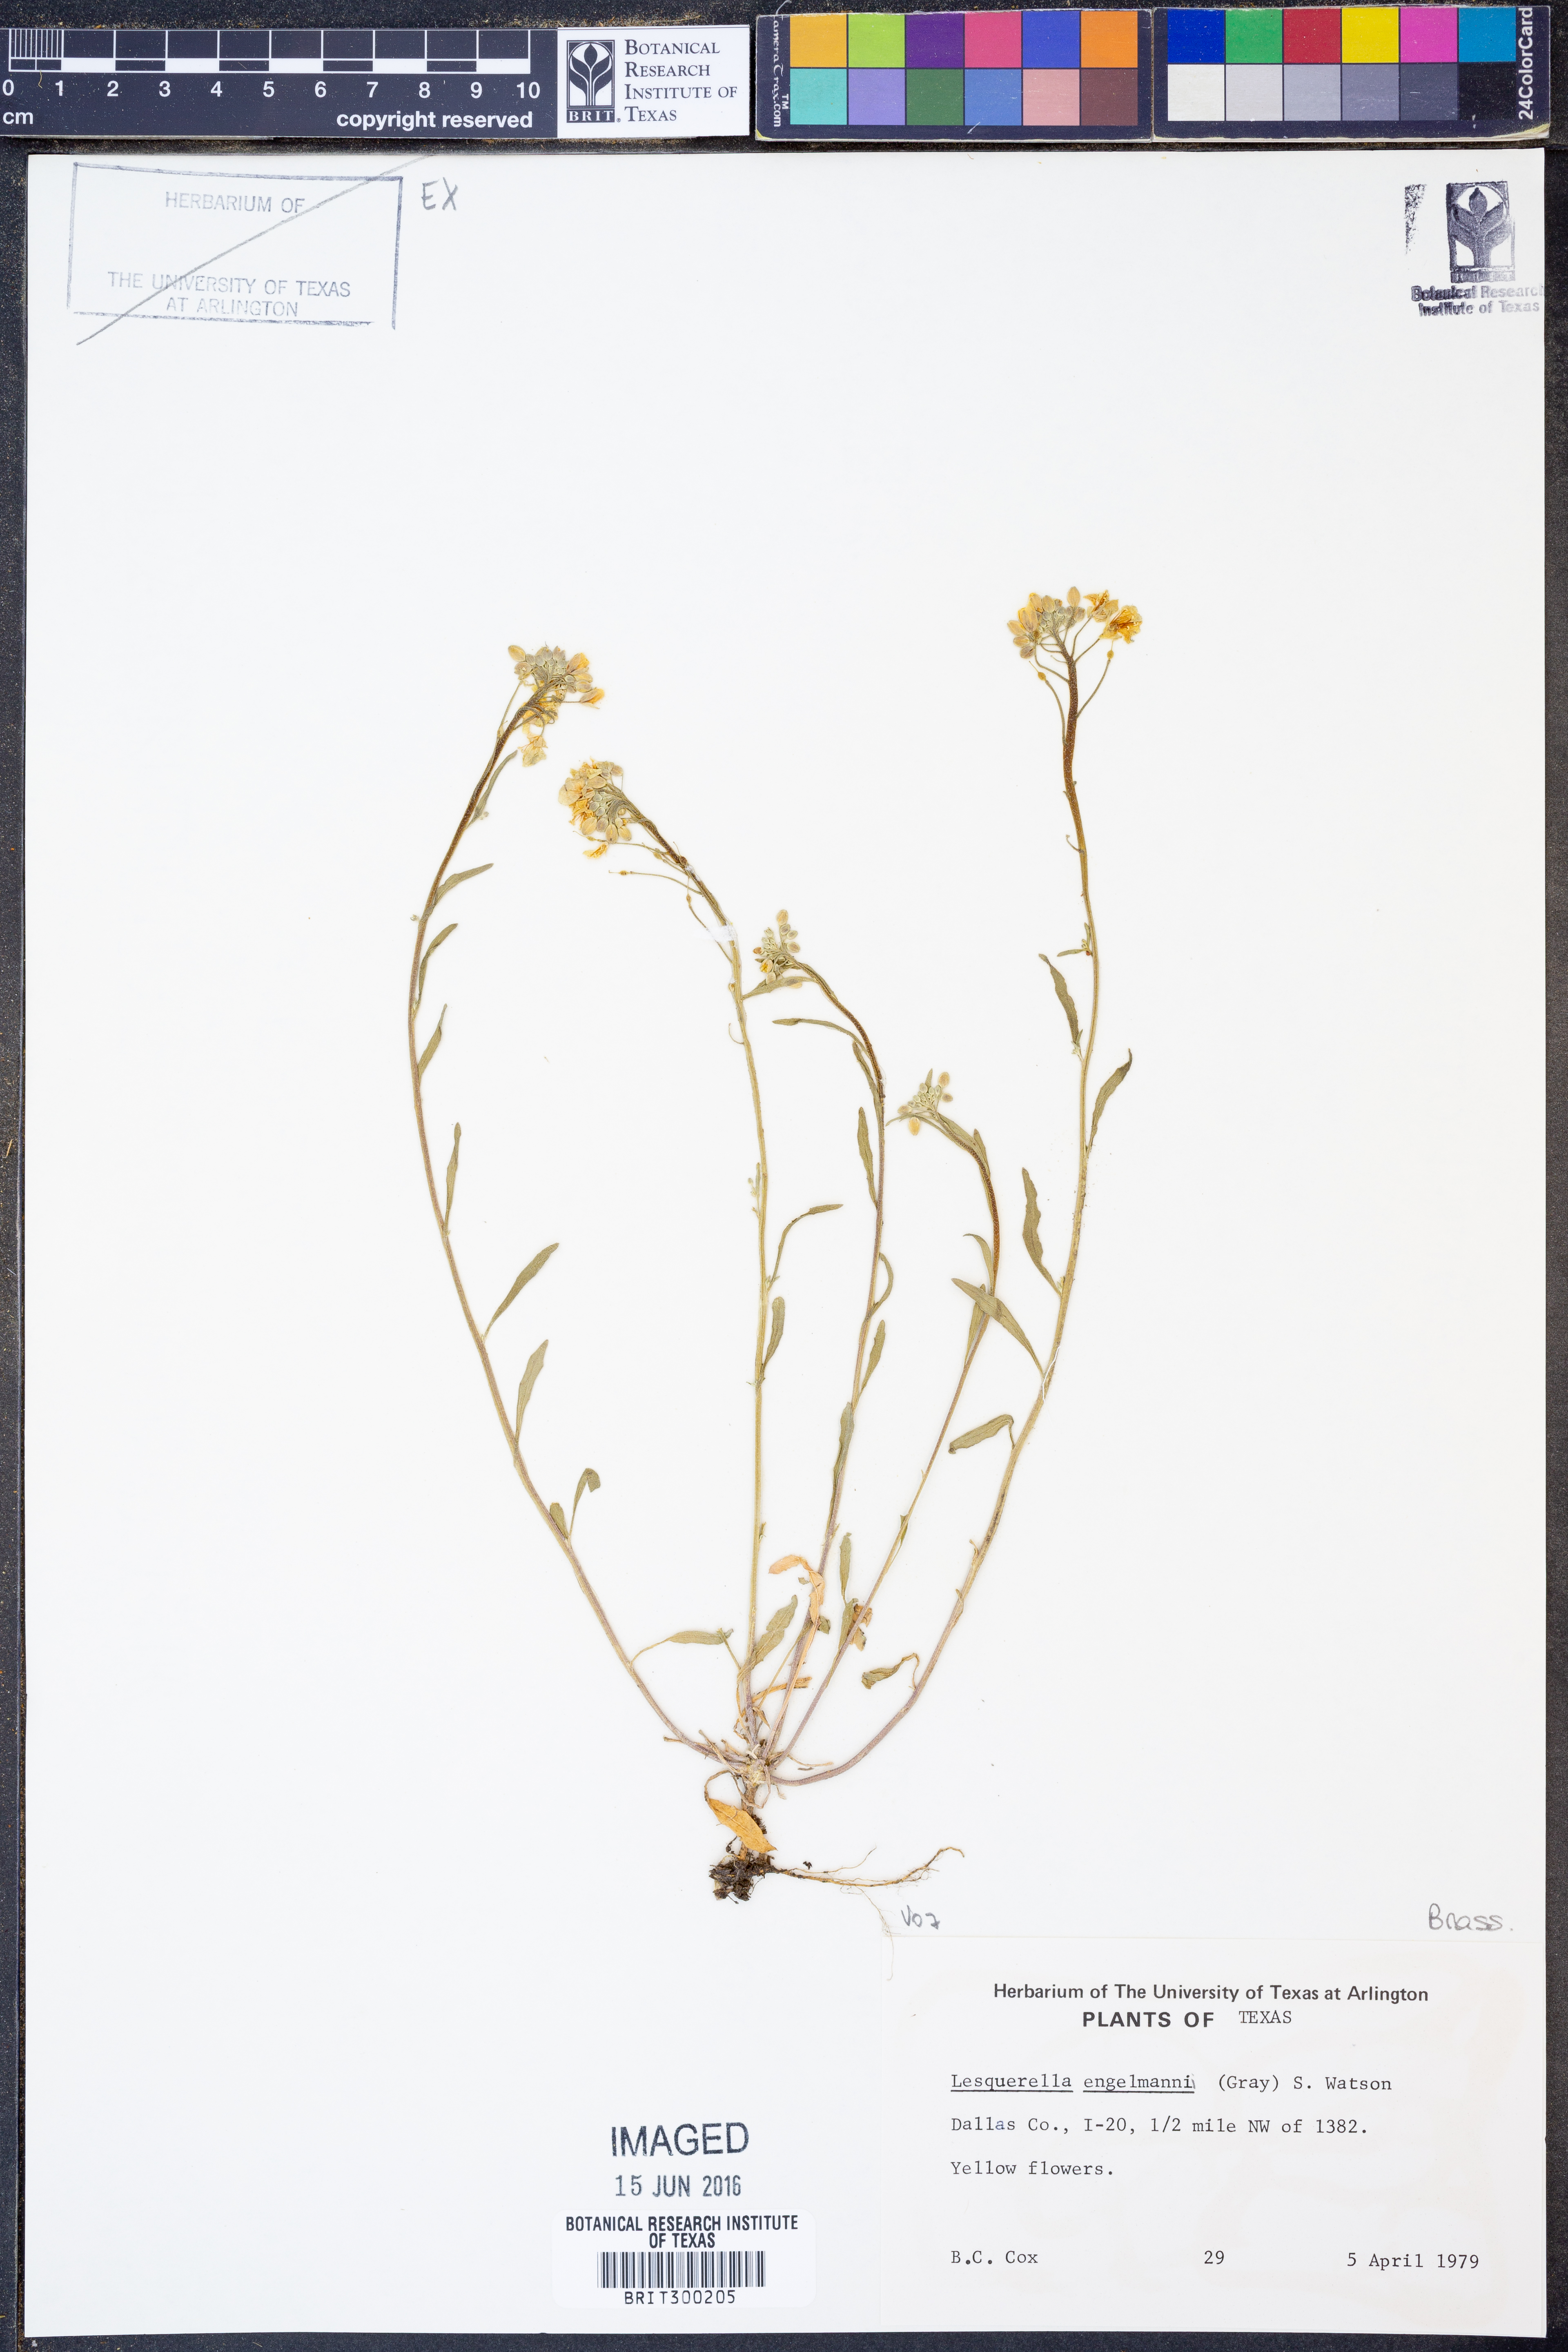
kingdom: Plantae
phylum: Tracheophyta
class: Magnoliopsida
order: Brassicales
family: Brassicaceae
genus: Physaria
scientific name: Physaria engelmannii
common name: Engelmann's bladderpod
